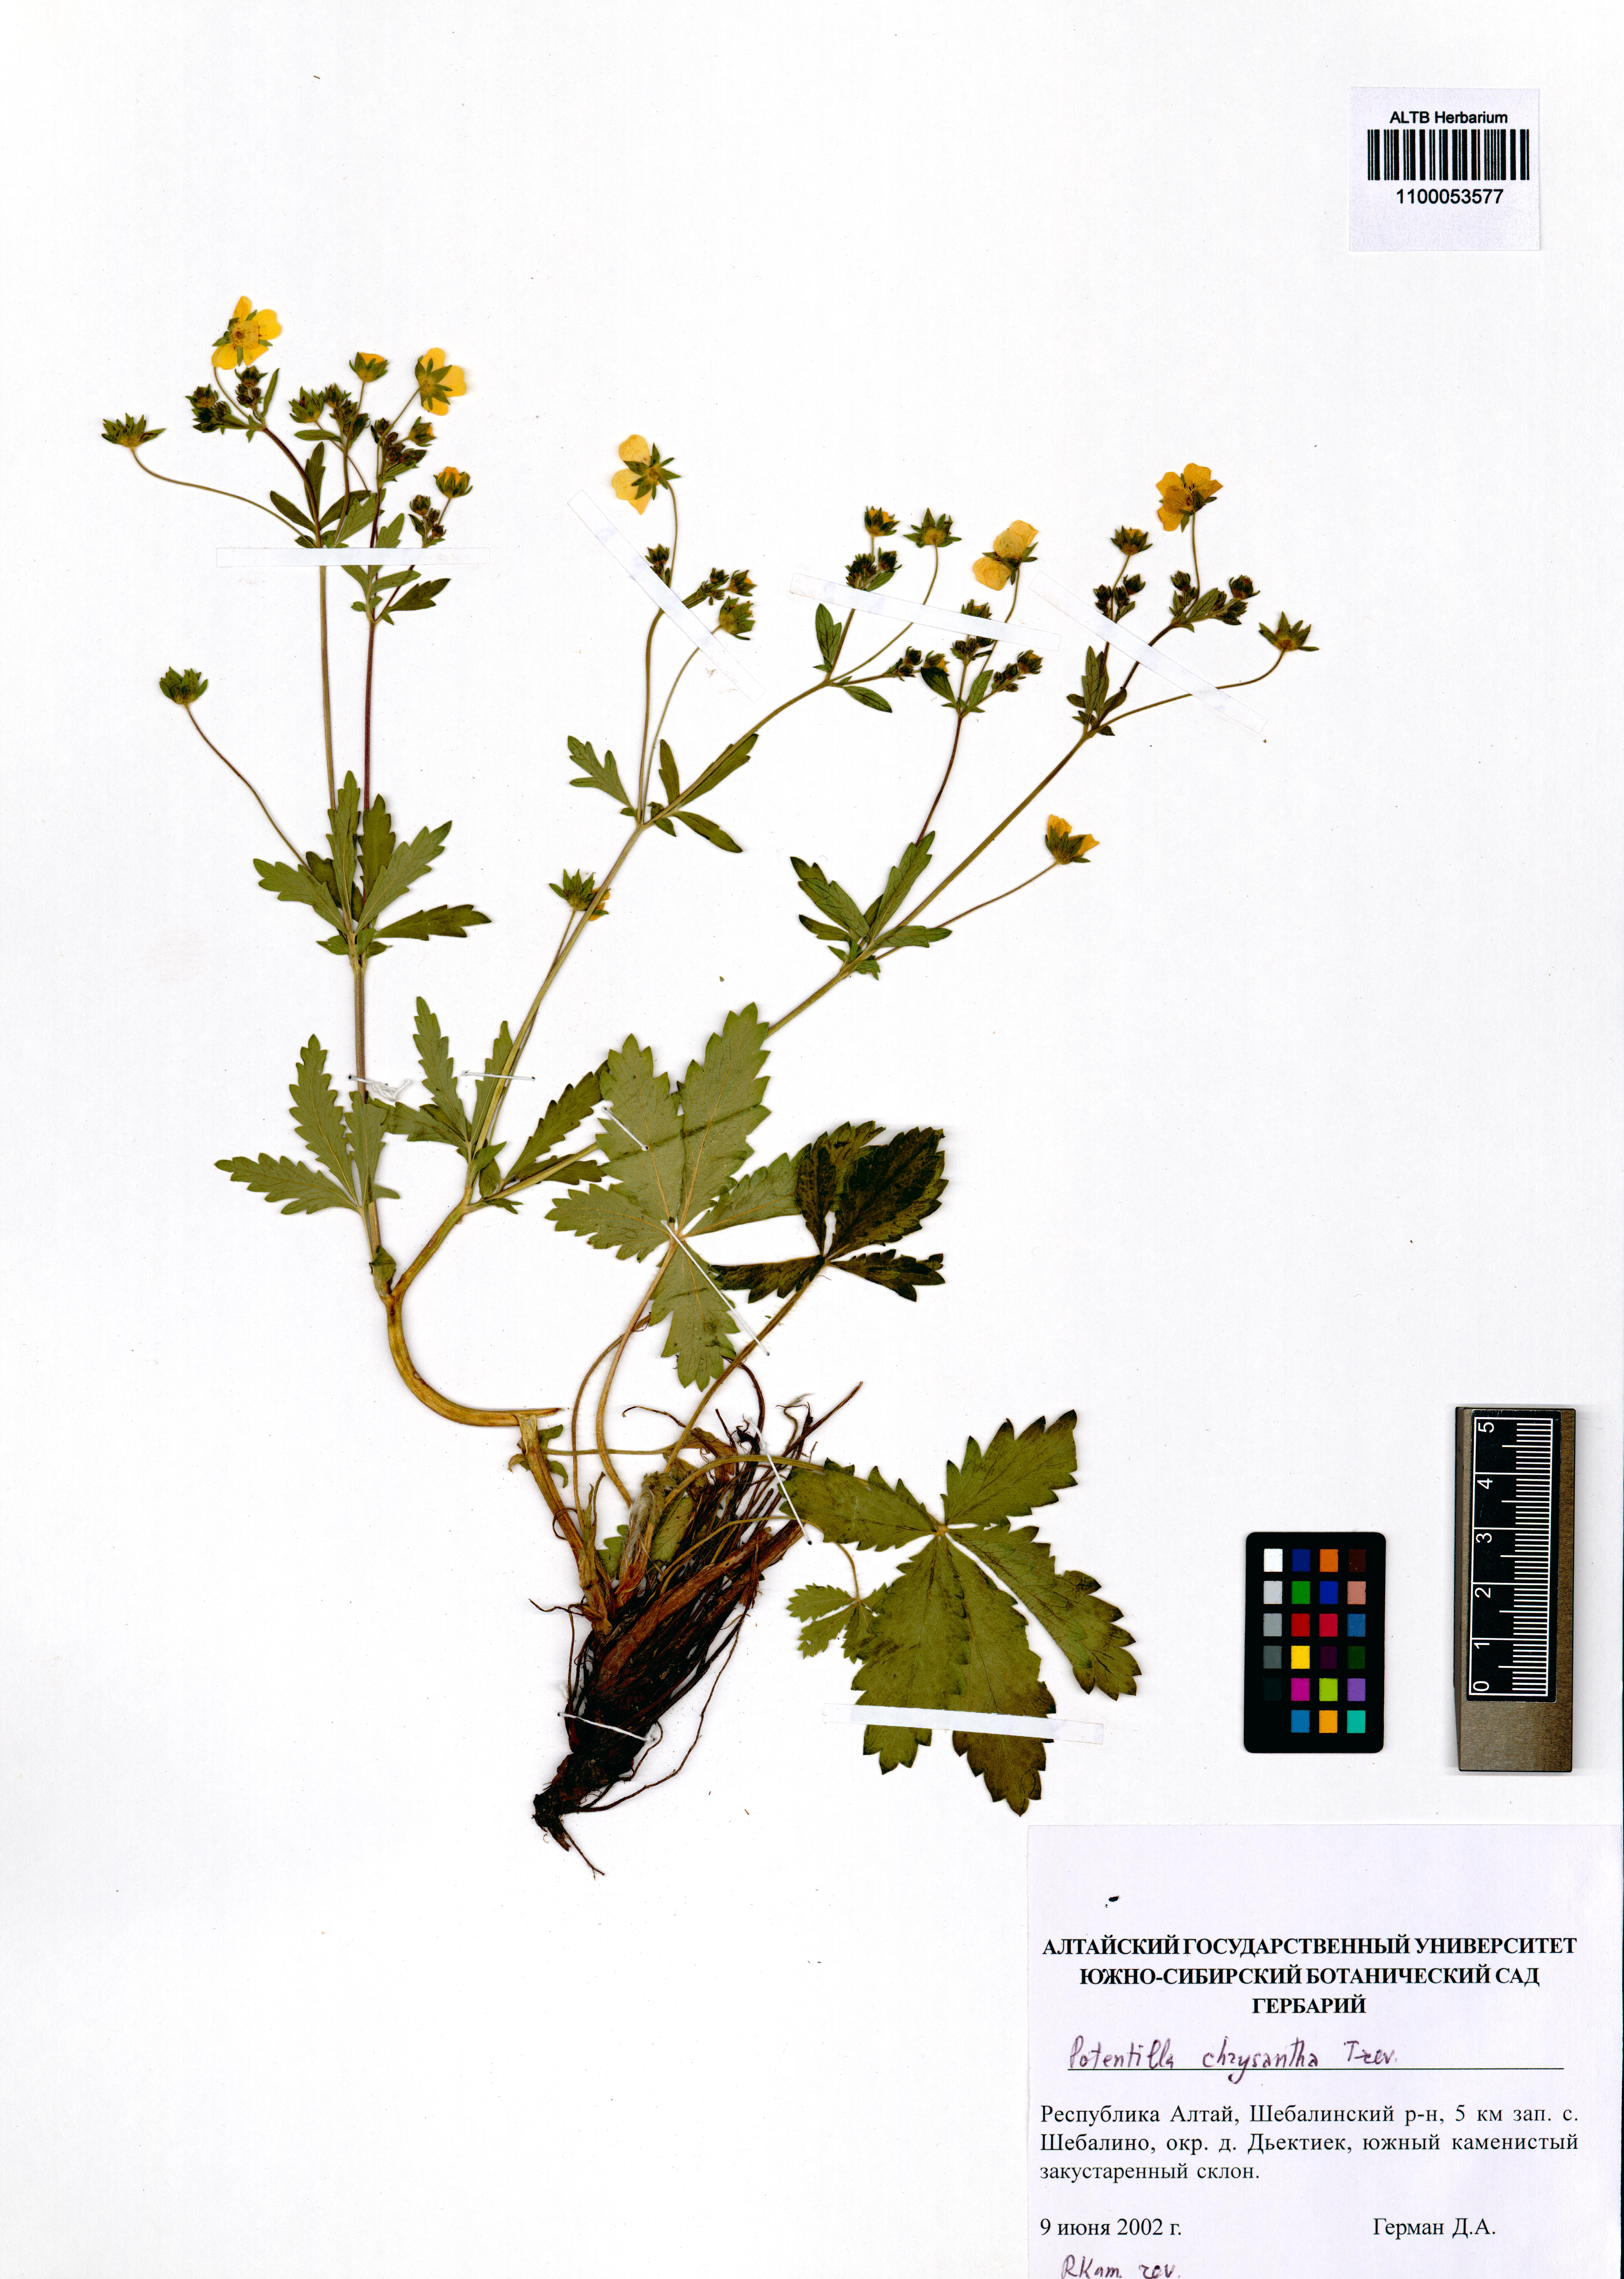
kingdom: Plantae
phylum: Tracheophyta
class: Magnoliopsida
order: Rosales
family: Rosaceae
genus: Potentilla
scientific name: Potentilla chrysantha
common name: Thuringian cinquefoil
